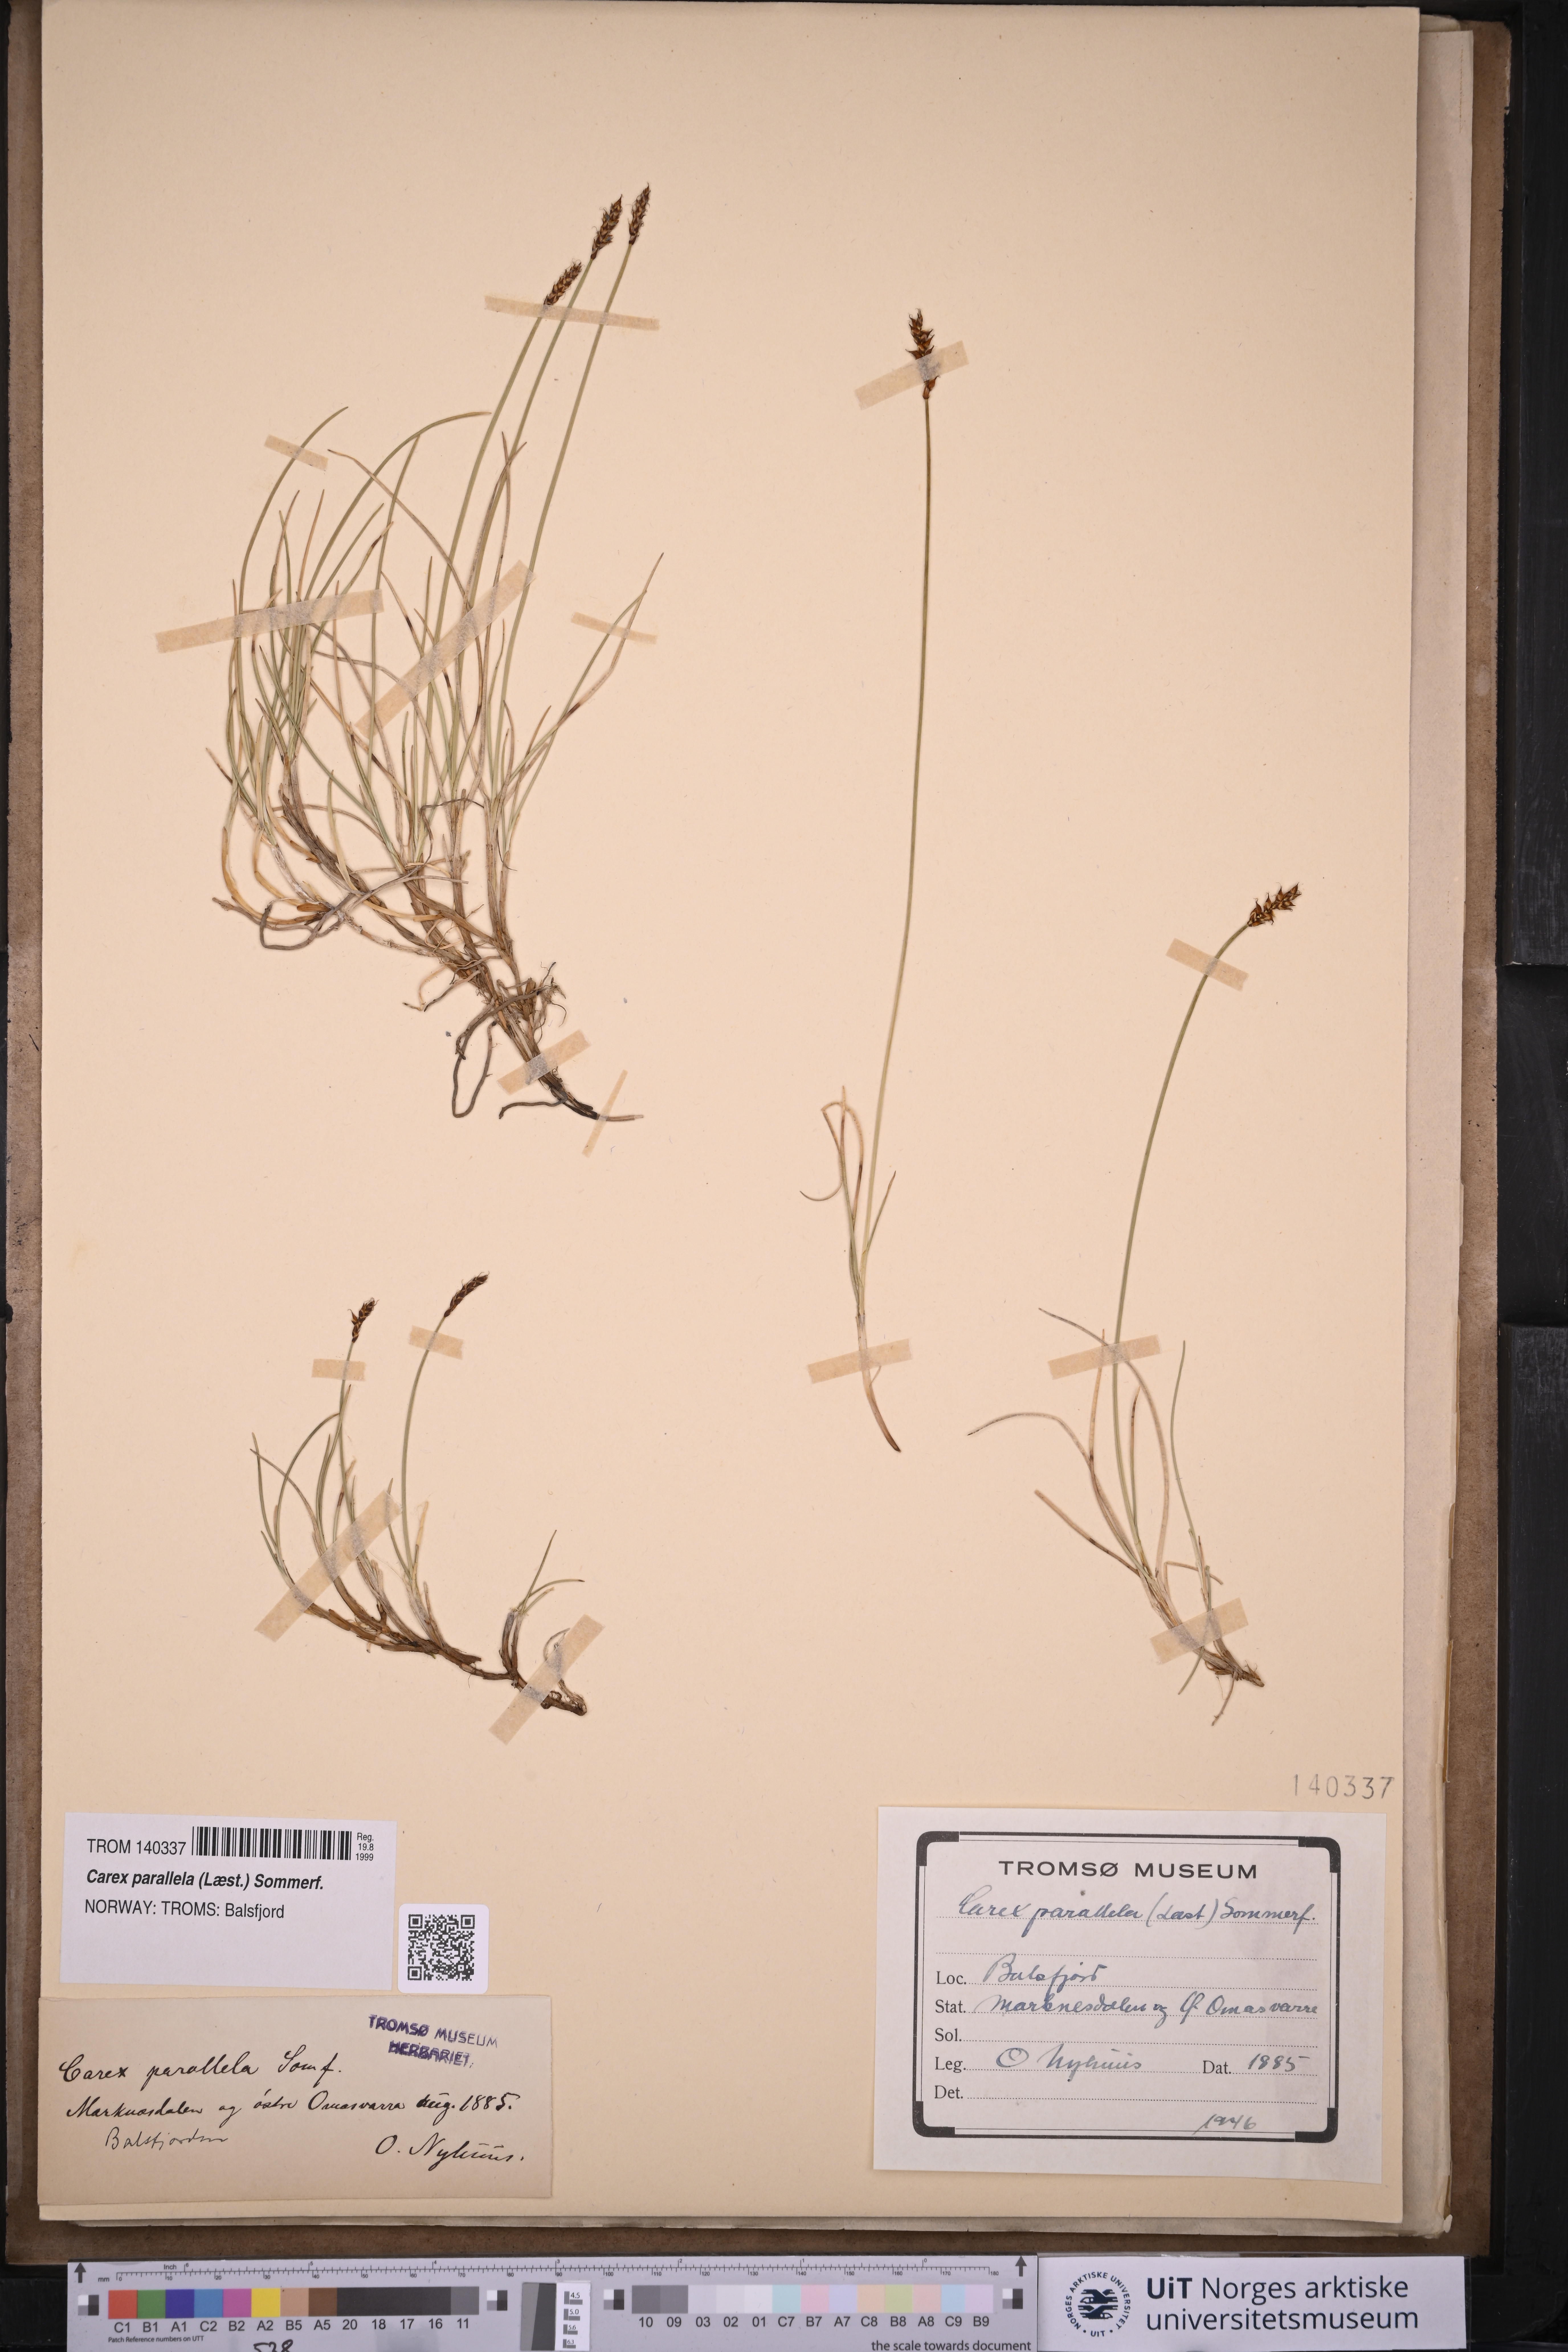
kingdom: Plantae
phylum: Tracheophyta
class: Liliopsida
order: Poales
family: Cyperaceae
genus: Carex
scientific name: Carex parallela
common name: Parallel sedge
